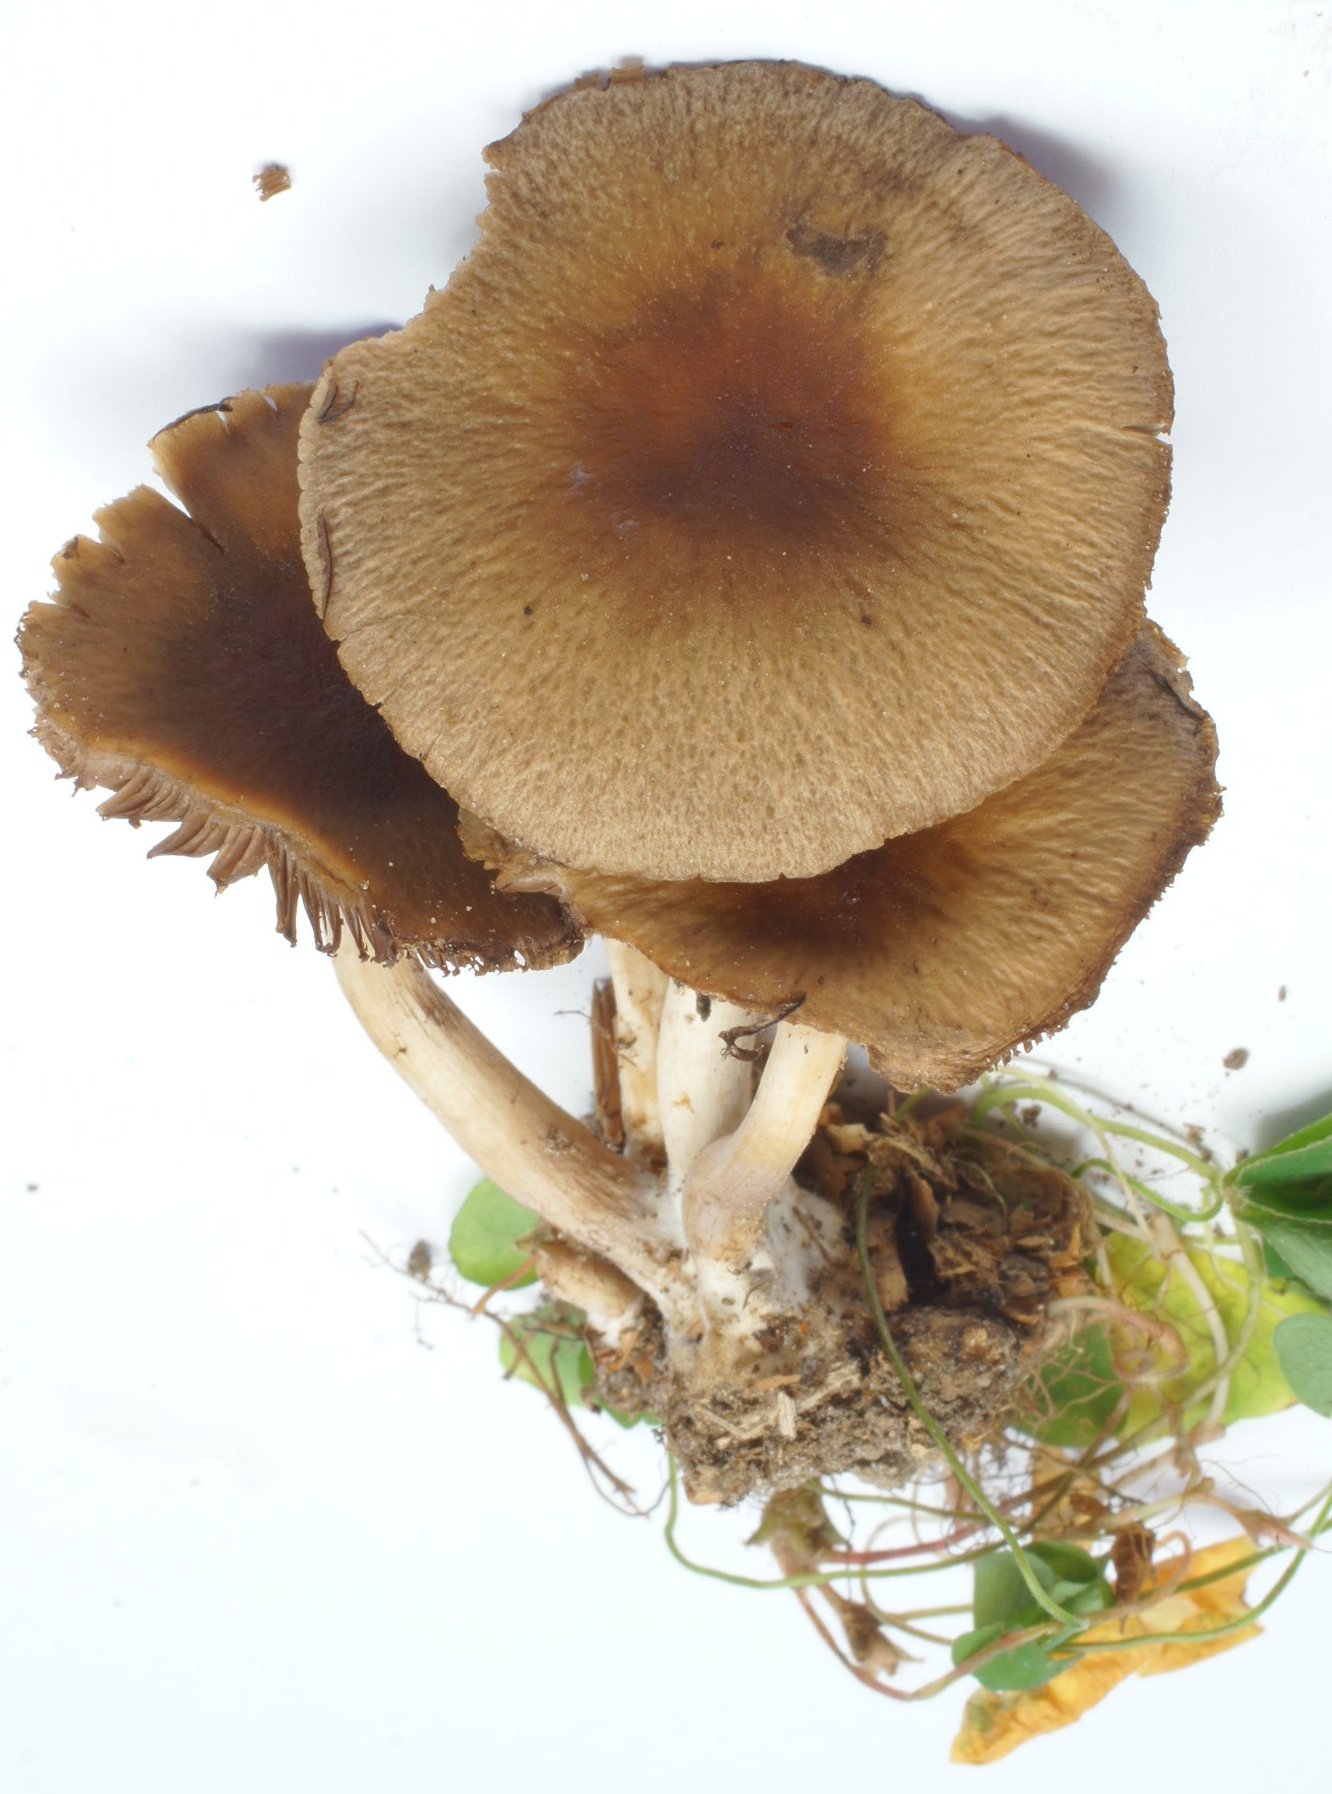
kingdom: Fungi
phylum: Basidiomycota
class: Agaricomycetes
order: Agaricales
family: Psathyrellaceae
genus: Psathyrella
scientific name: Psathyrella piluliformis
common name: lysstokket mørkhat
